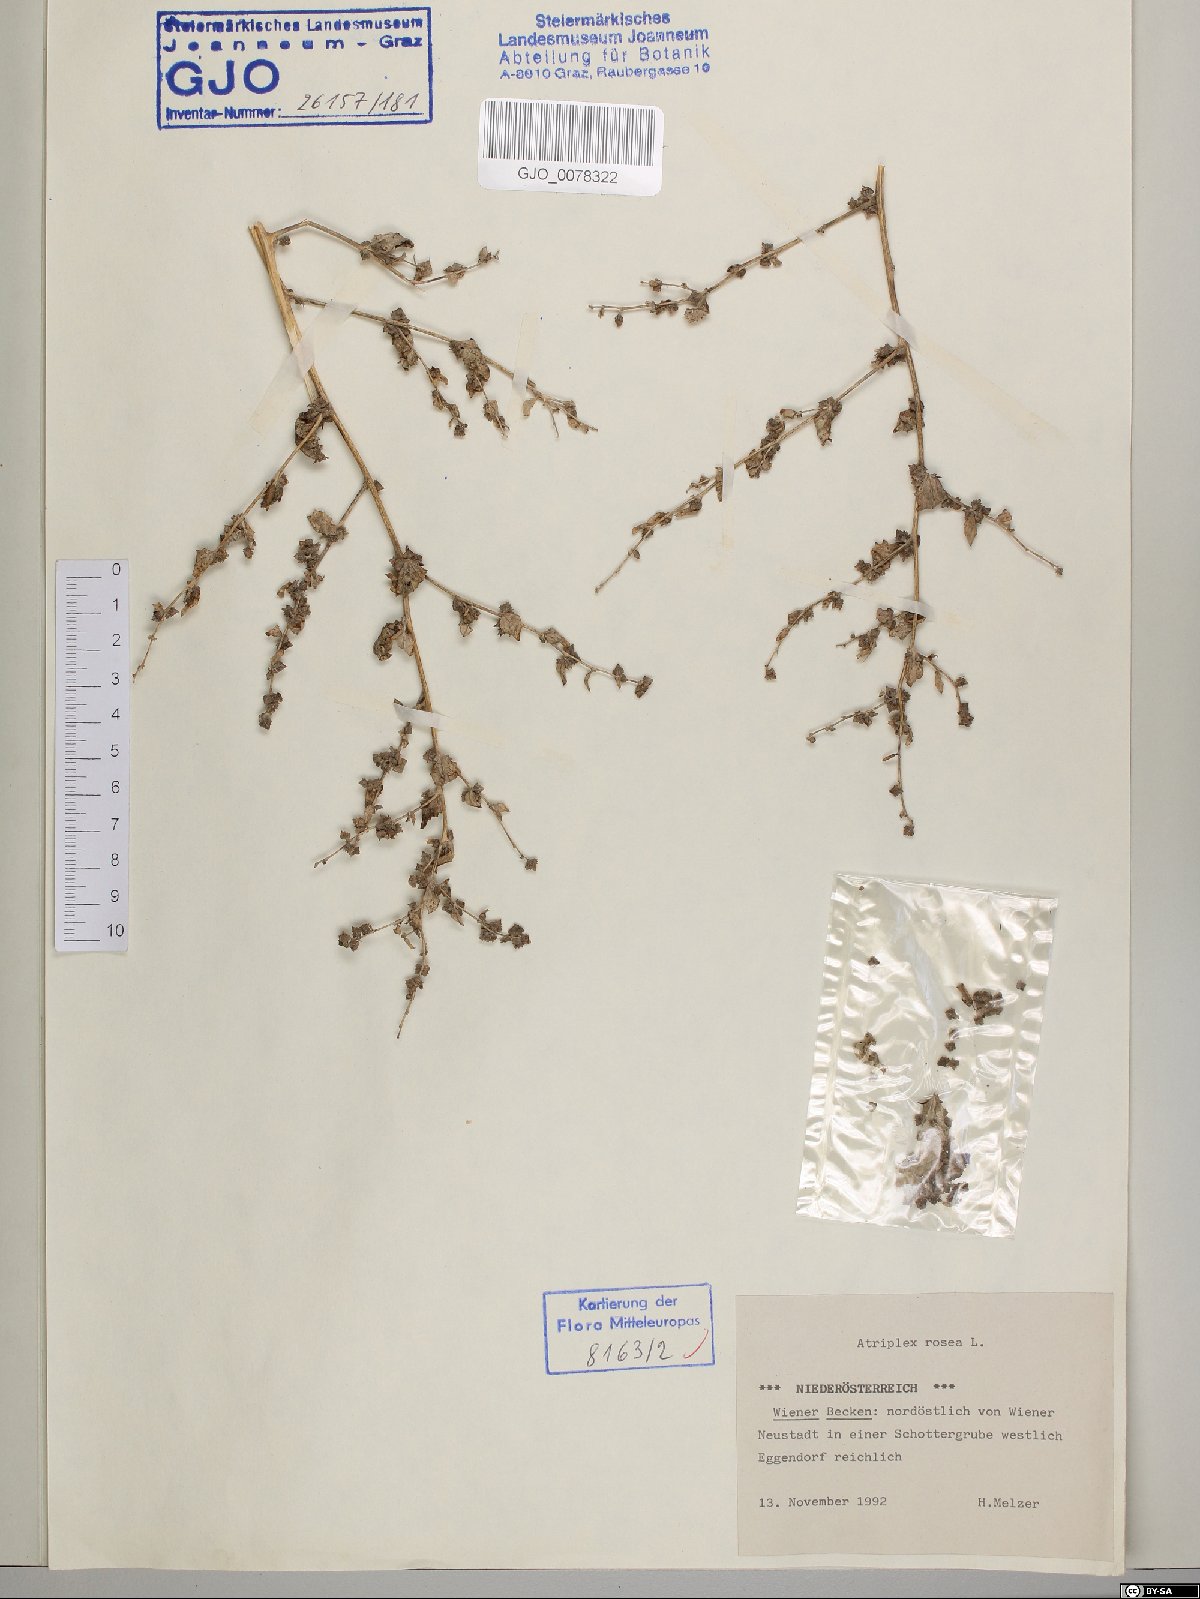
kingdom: Plantae
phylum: Tracheophyta
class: Magnoliopsida
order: Caryophyllales
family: Amaranthaceae
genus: Atriplex
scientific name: Atriplex rosea
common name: Tumbling saltweed
